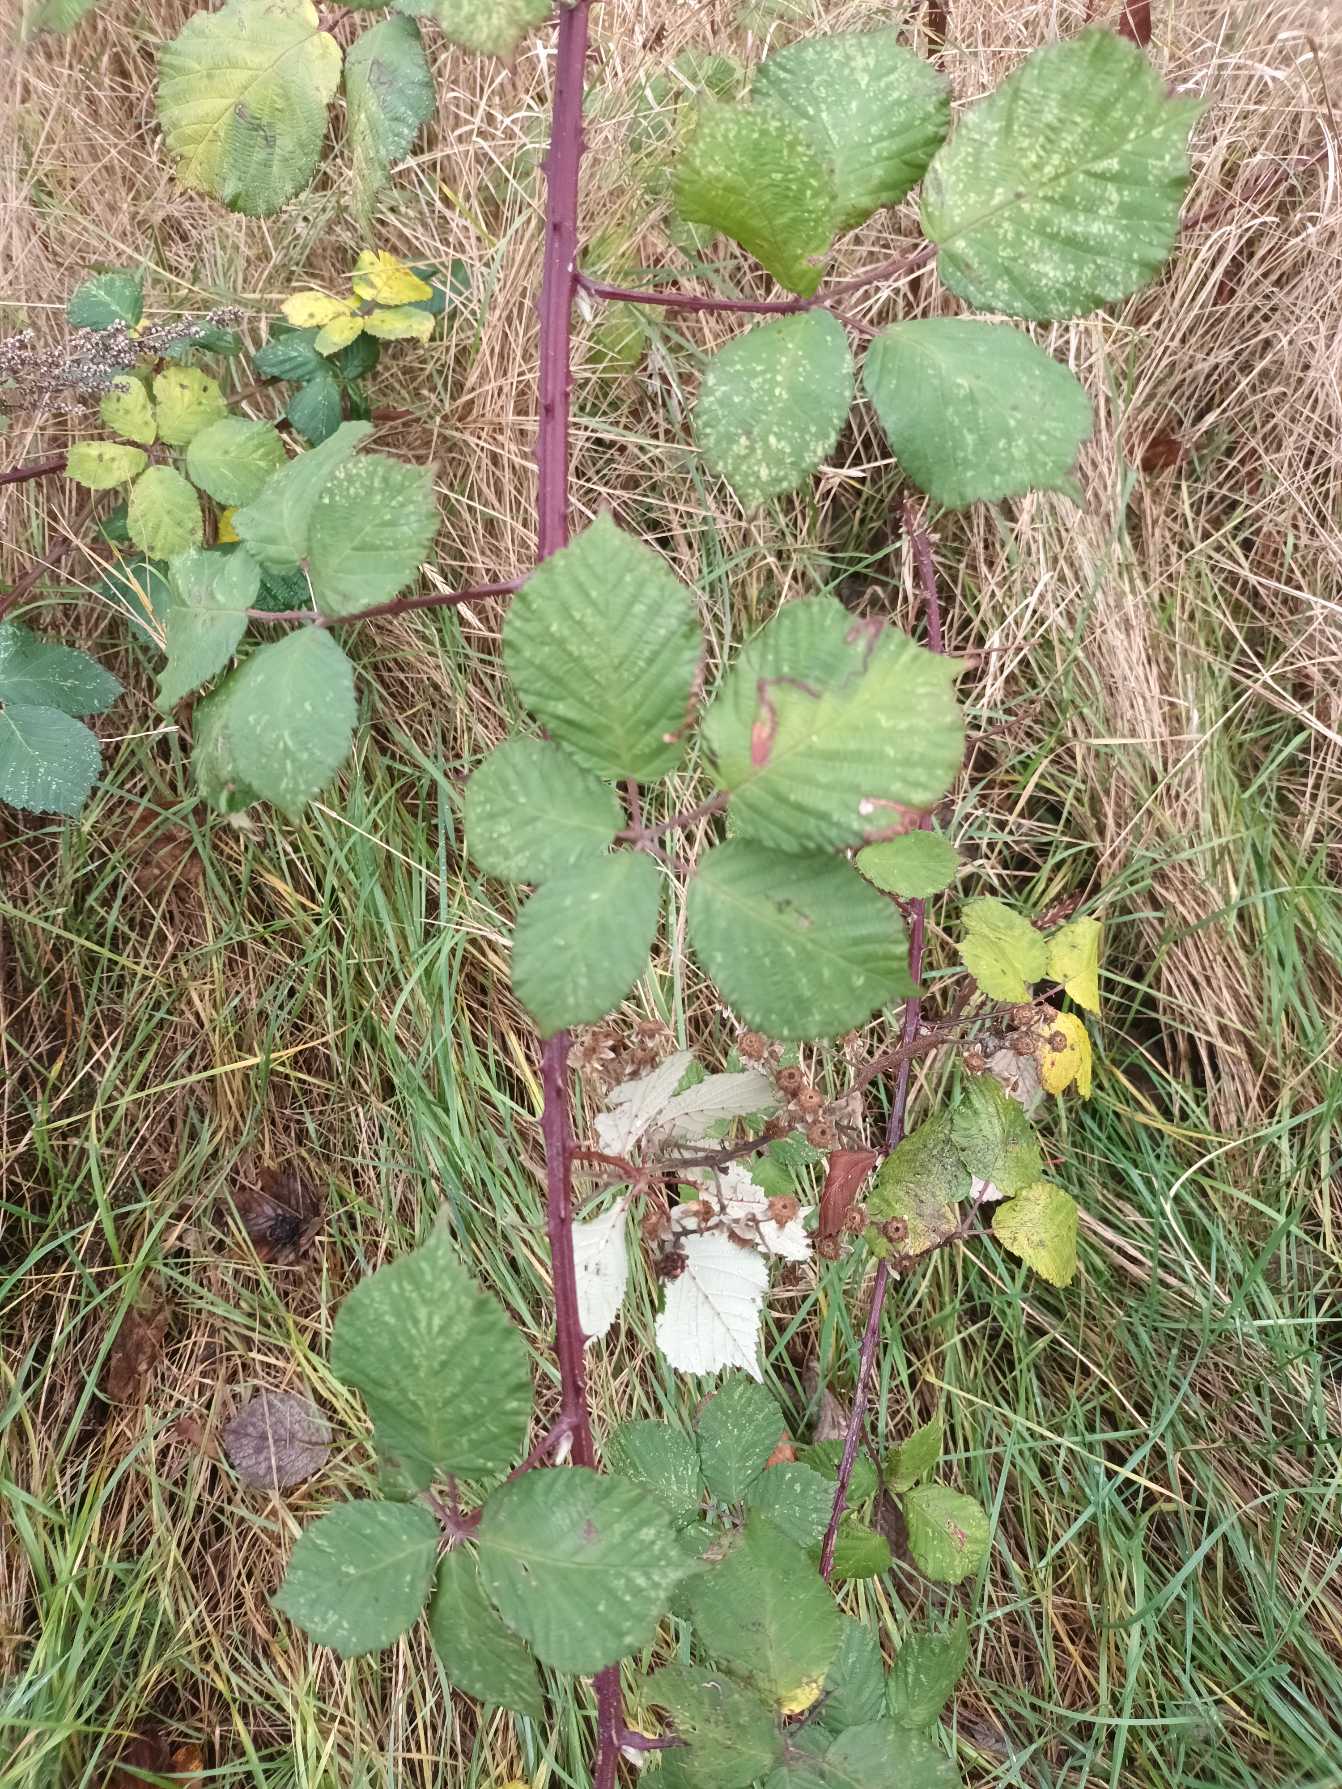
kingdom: Plantae
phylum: Tracheophyta
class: Magnoliopsida
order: Rosales
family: Rosaceae
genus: Rubus
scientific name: Rubus armeniacus
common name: Armensk brombær
